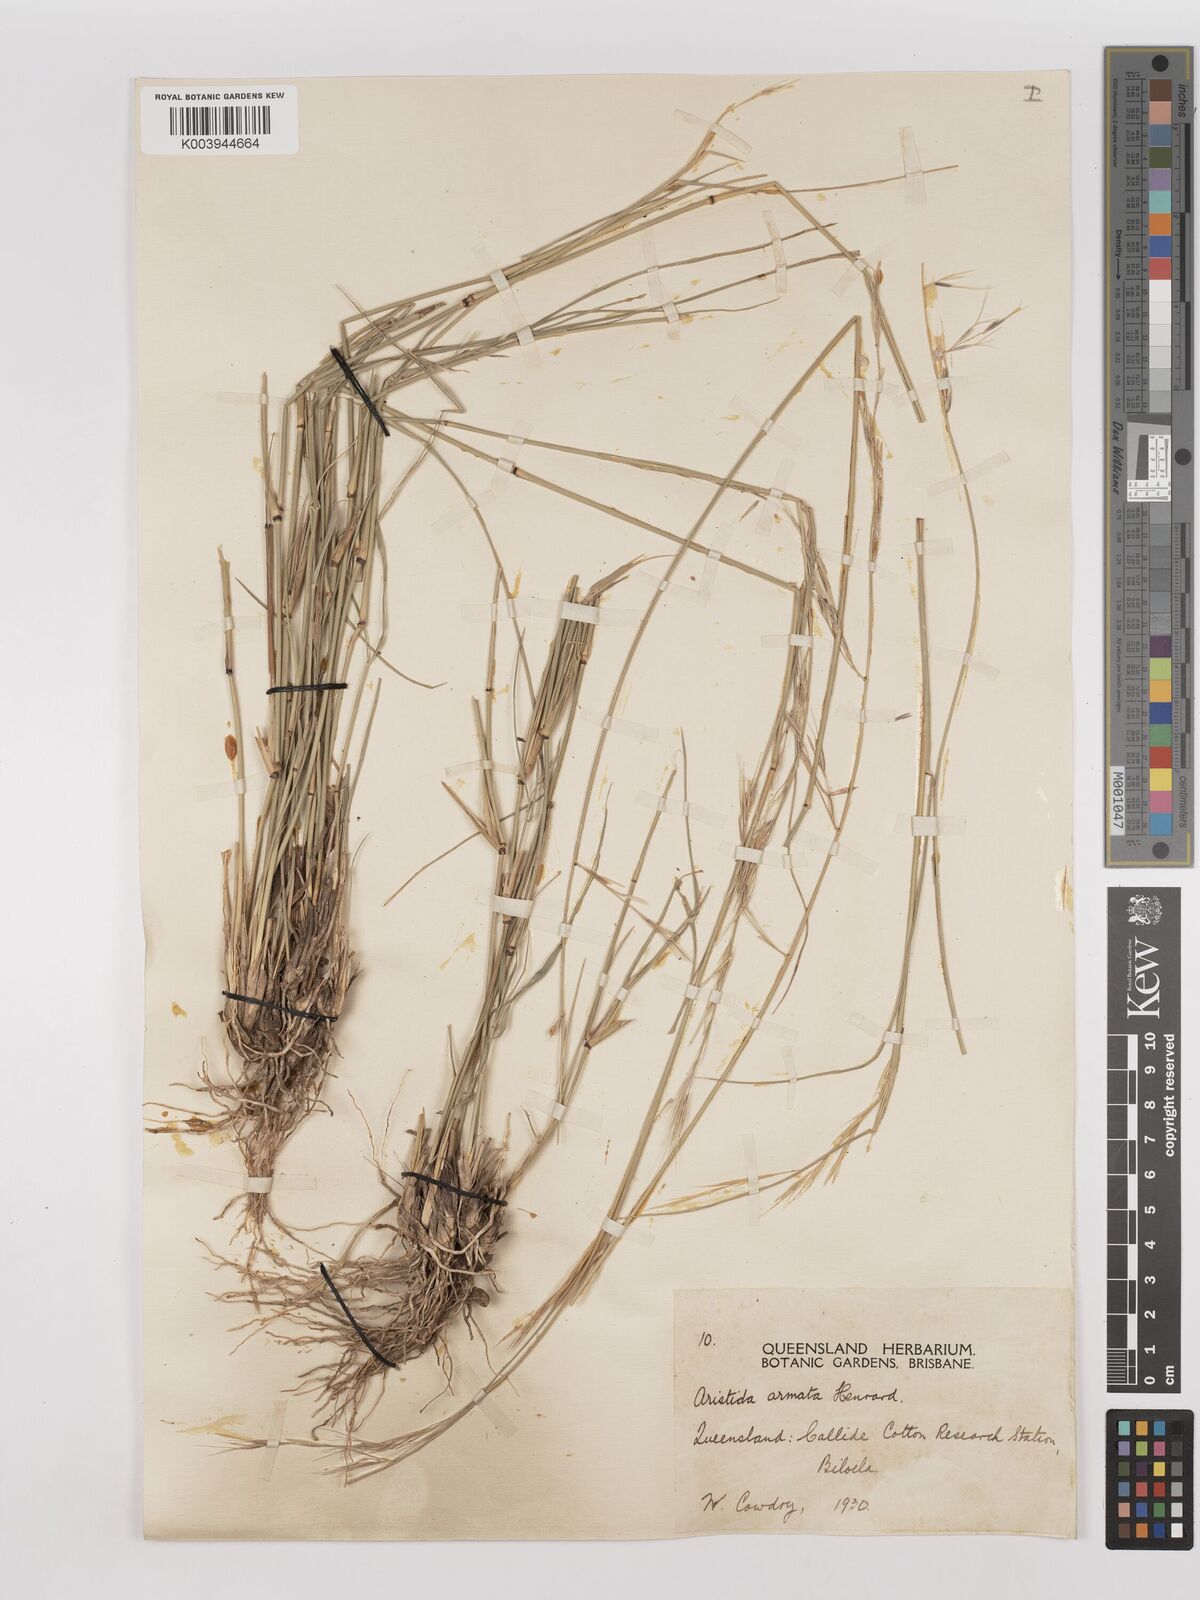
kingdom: Plantae
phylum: Tracheophyta
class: Liliopsida
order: Poales
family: Poaceae
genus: Aristida
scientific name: Aristida calycina
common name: Dark wire grass
